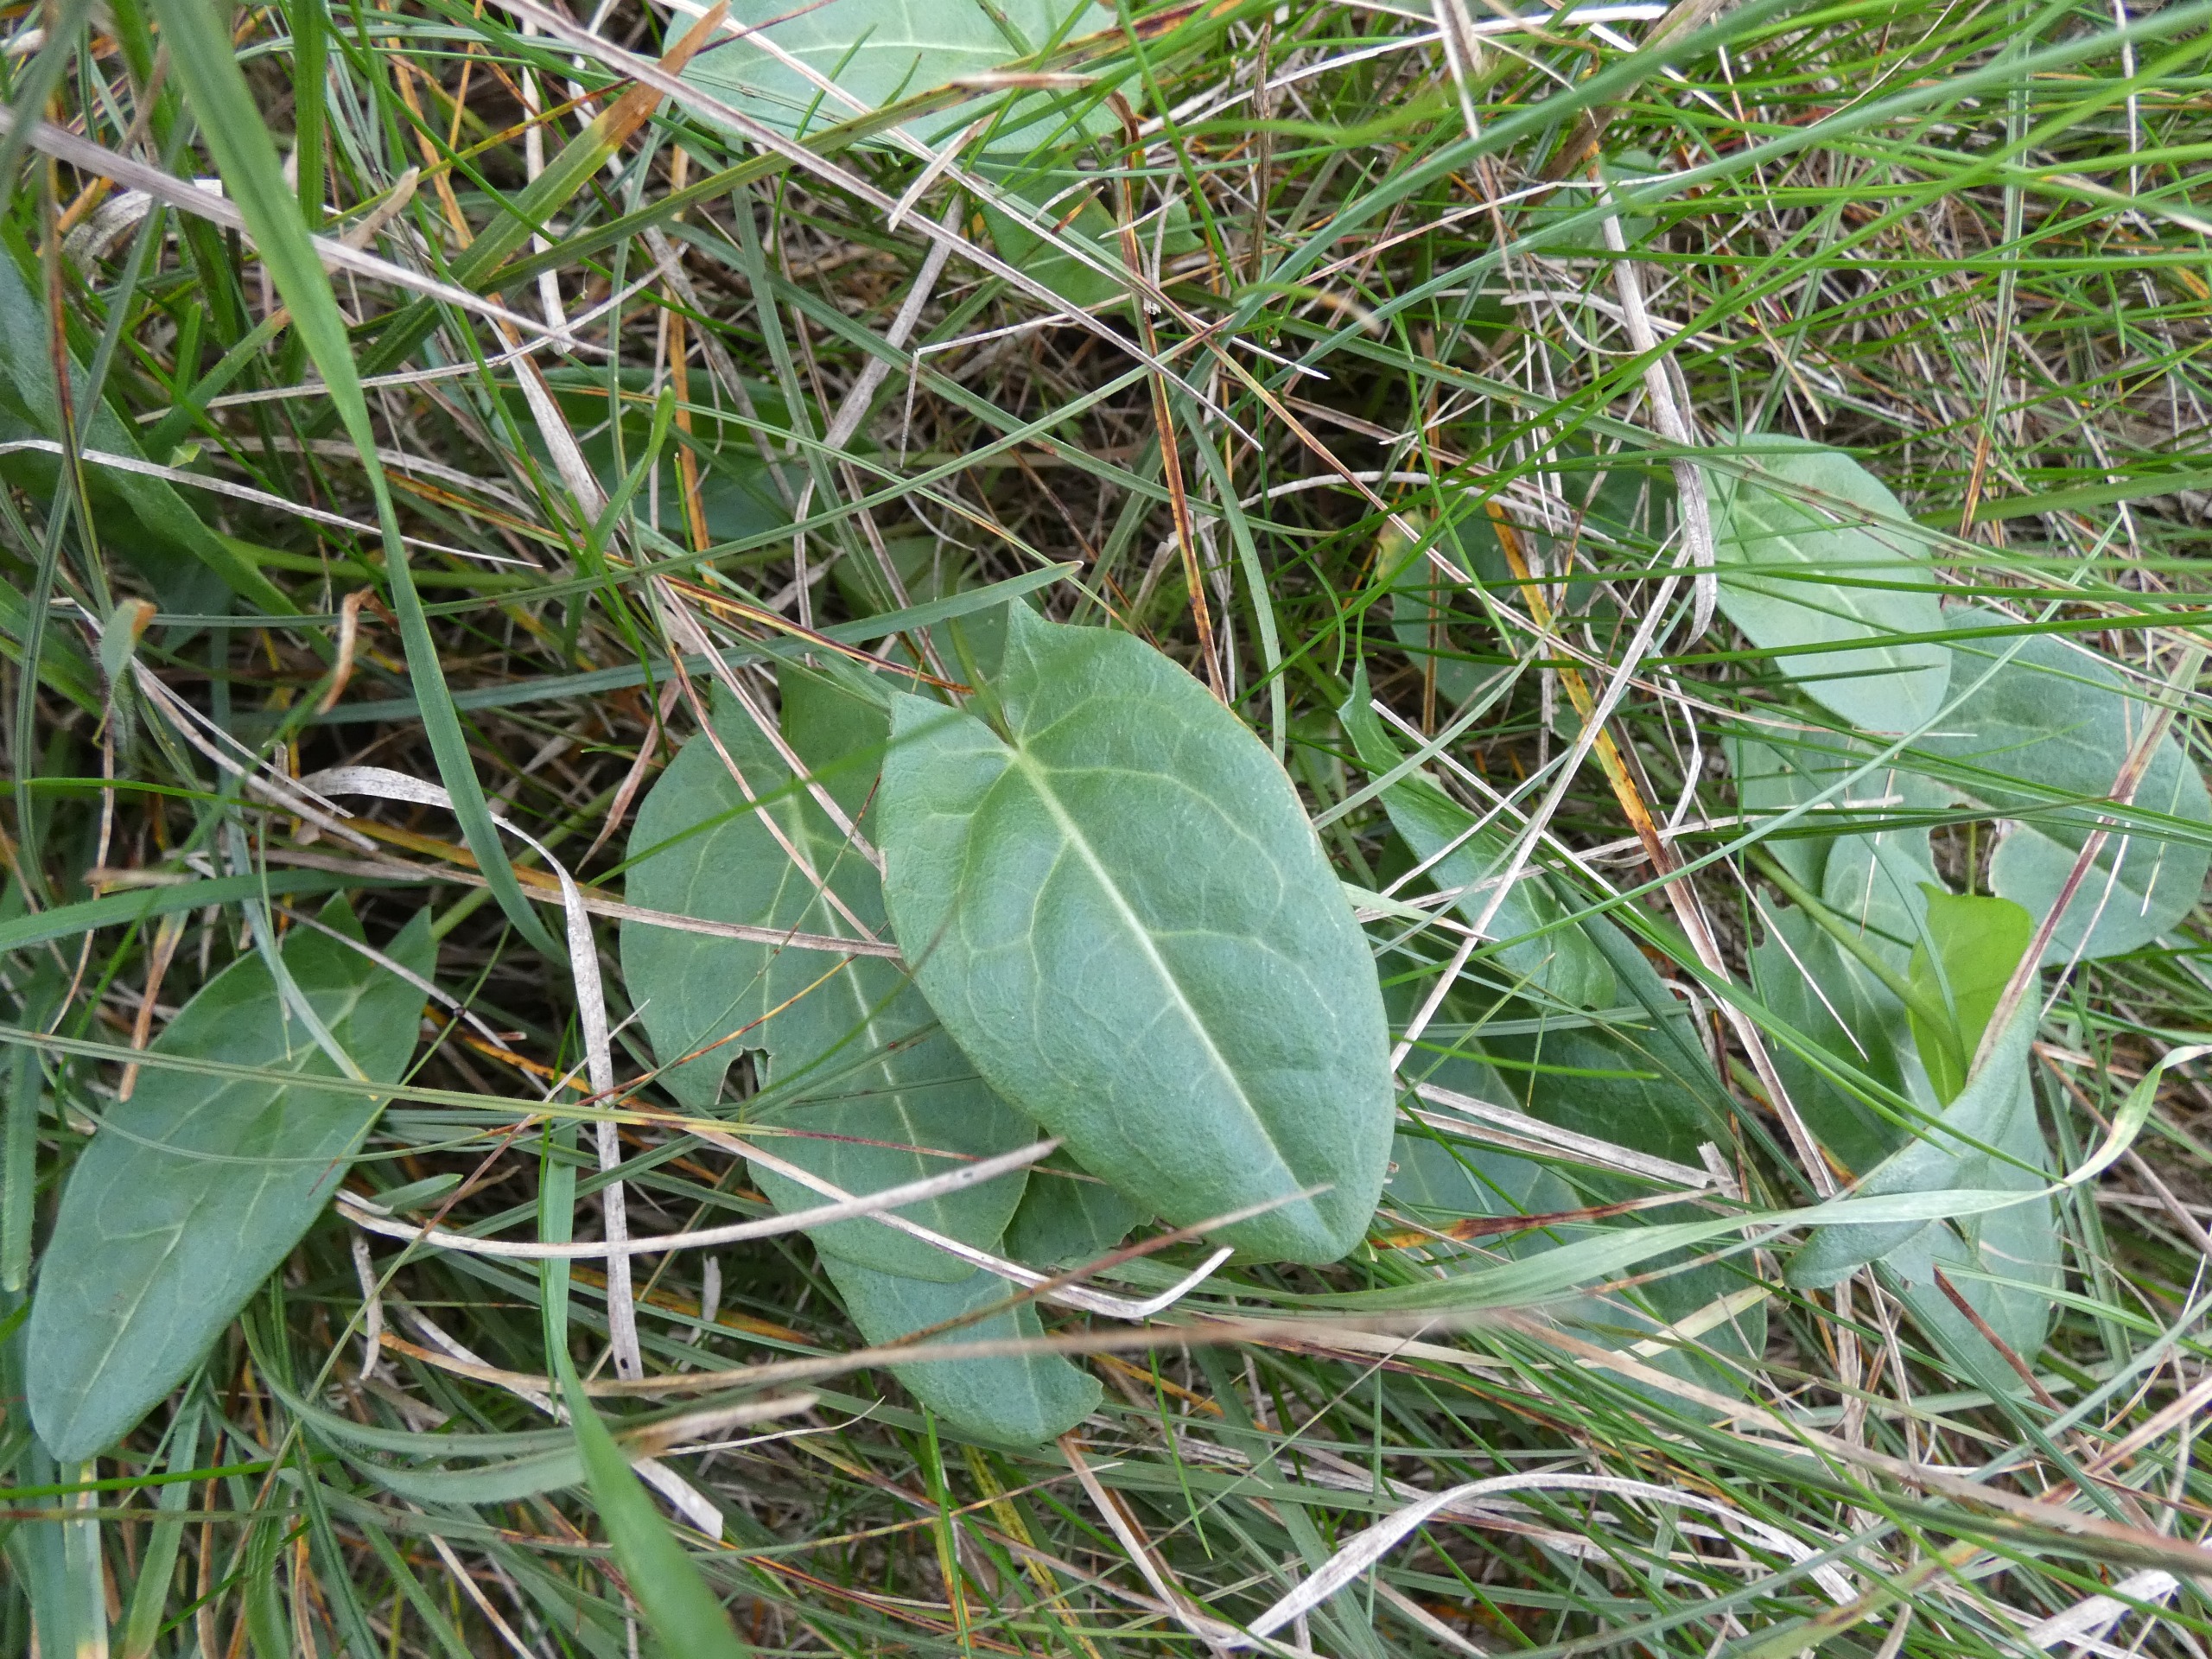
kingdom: Plantae
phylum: Tracheophyta
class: Magnoliopsida
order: Caryophyllales
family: Polygonaceae
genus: Rumex
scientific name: Rumex acetosa
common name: Almindelig syre
